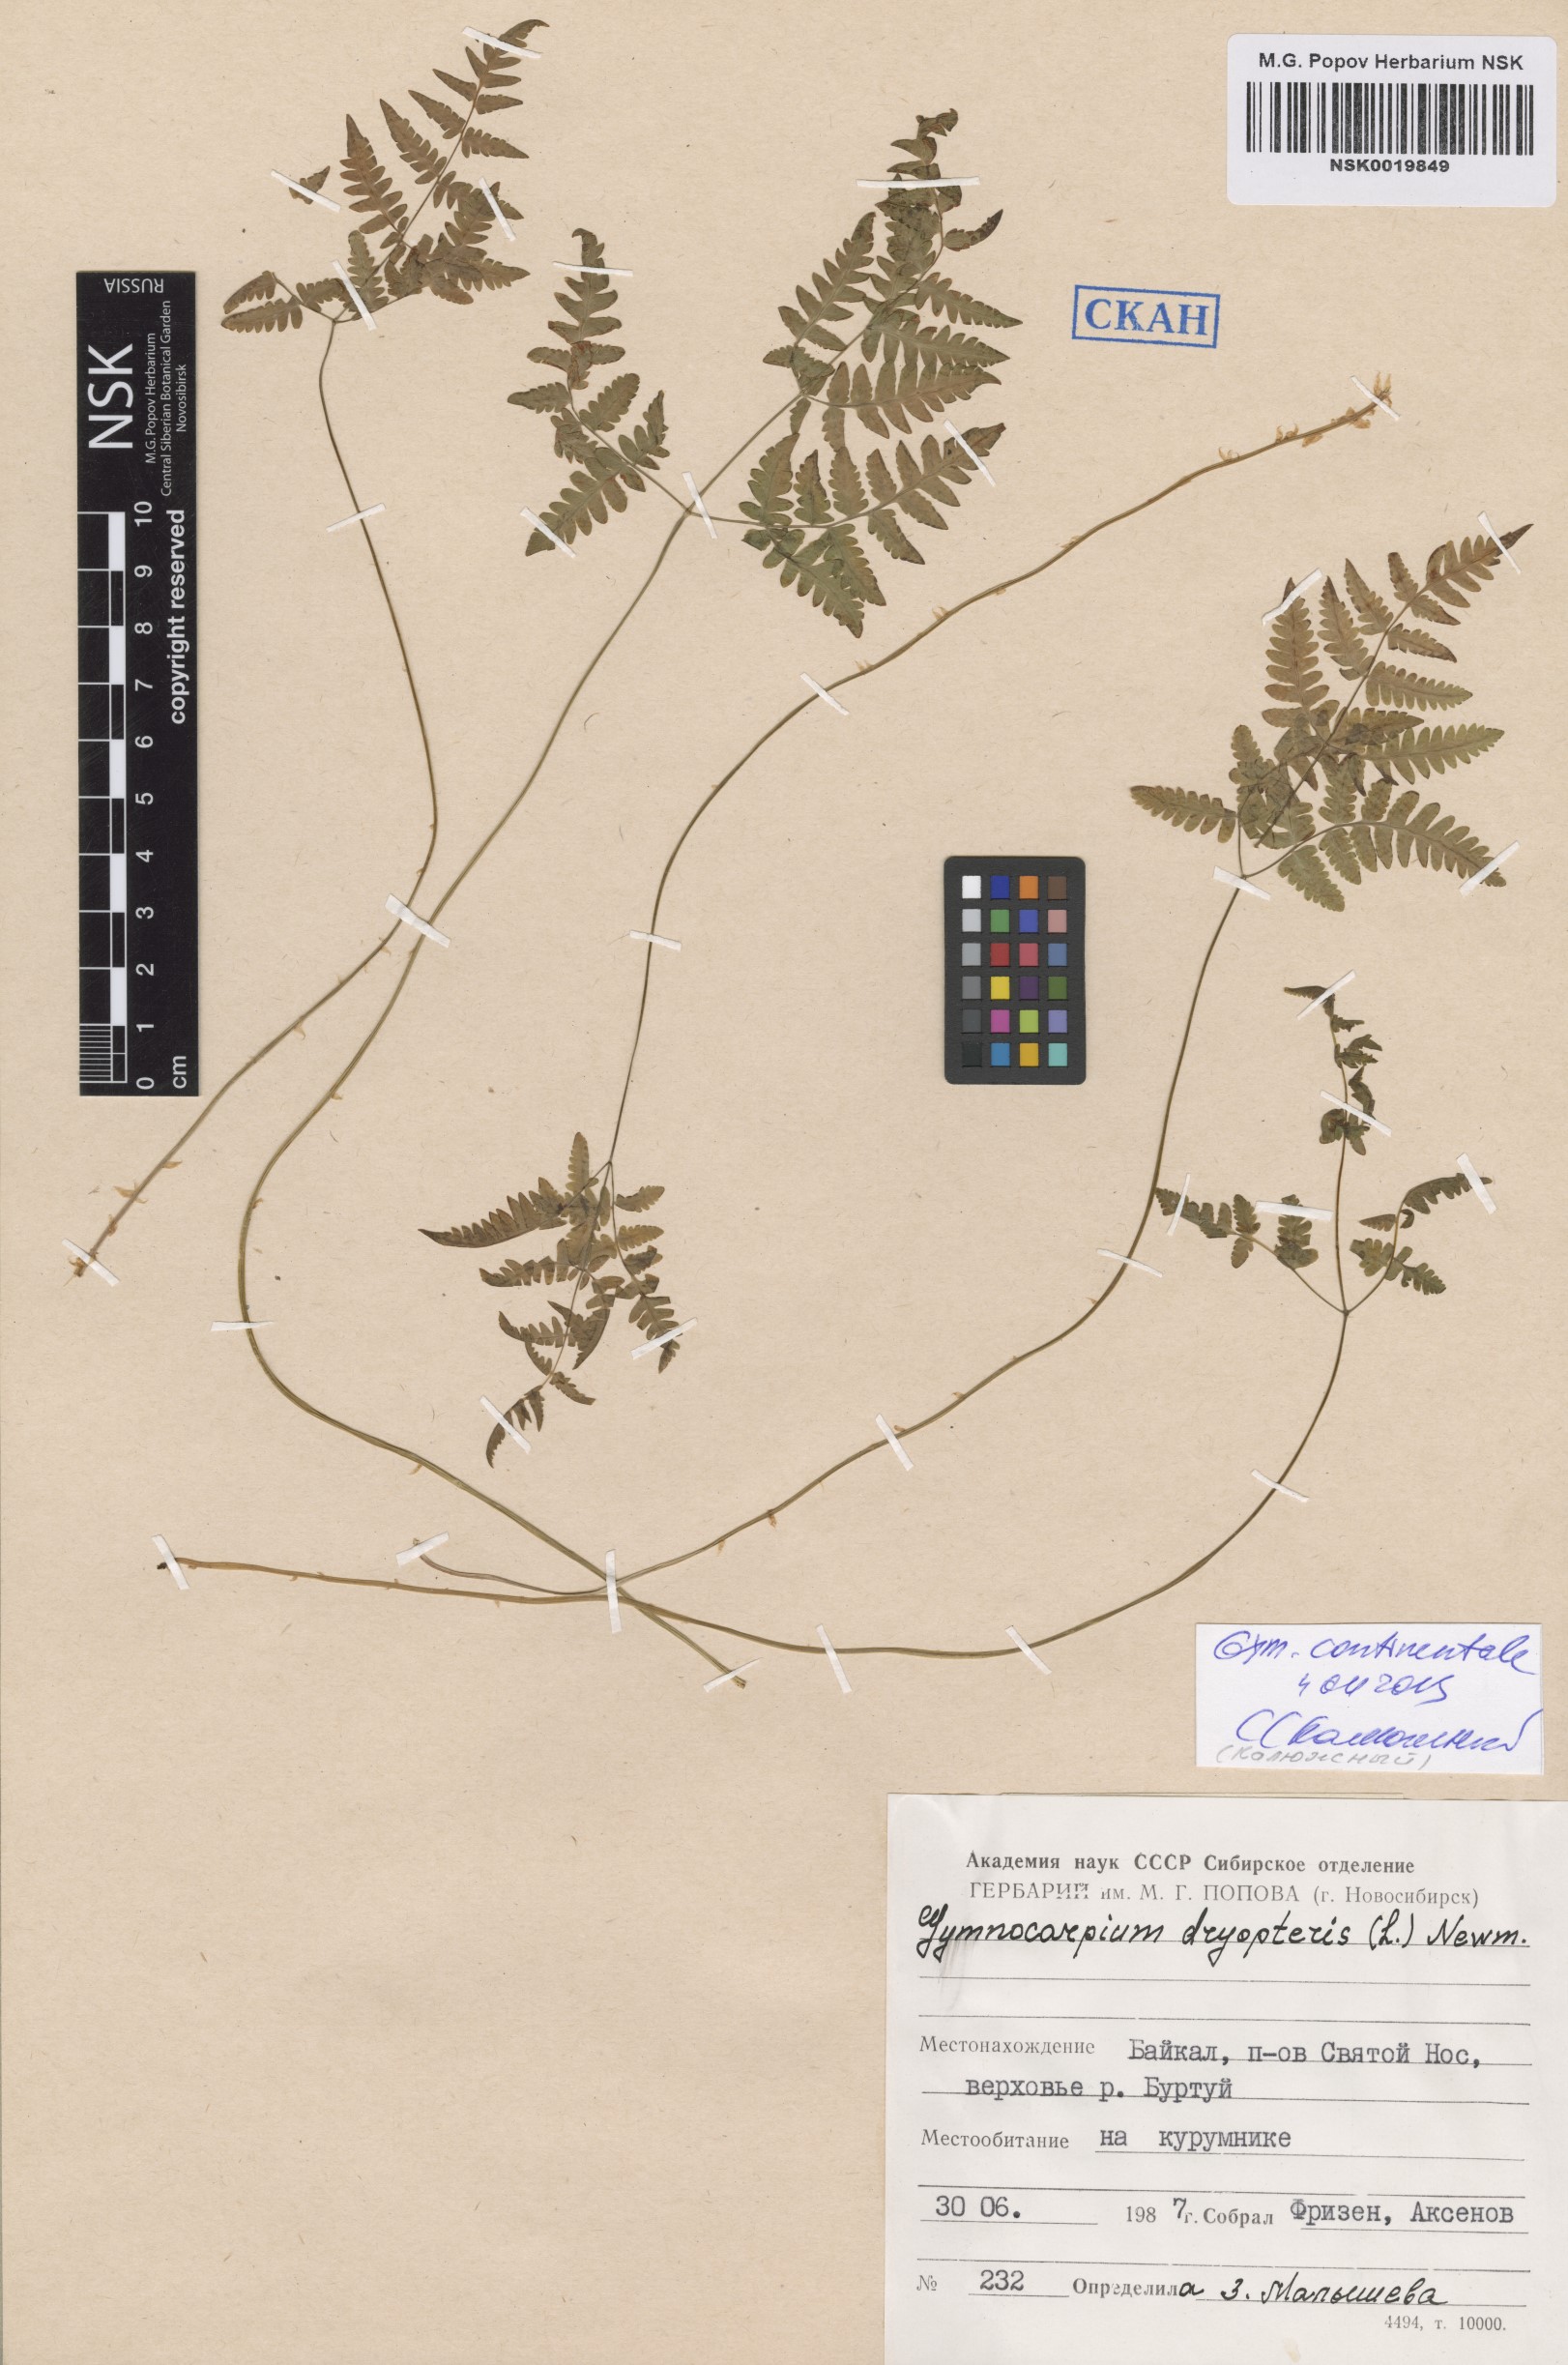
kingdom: Plantae
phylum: Tracheophyta
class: Polypodiopsida
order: Polypodiales
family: Cystopteridaceae
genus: Gymnocarpium
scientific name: Gymnocarpium continentale
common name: Asian oak fern
